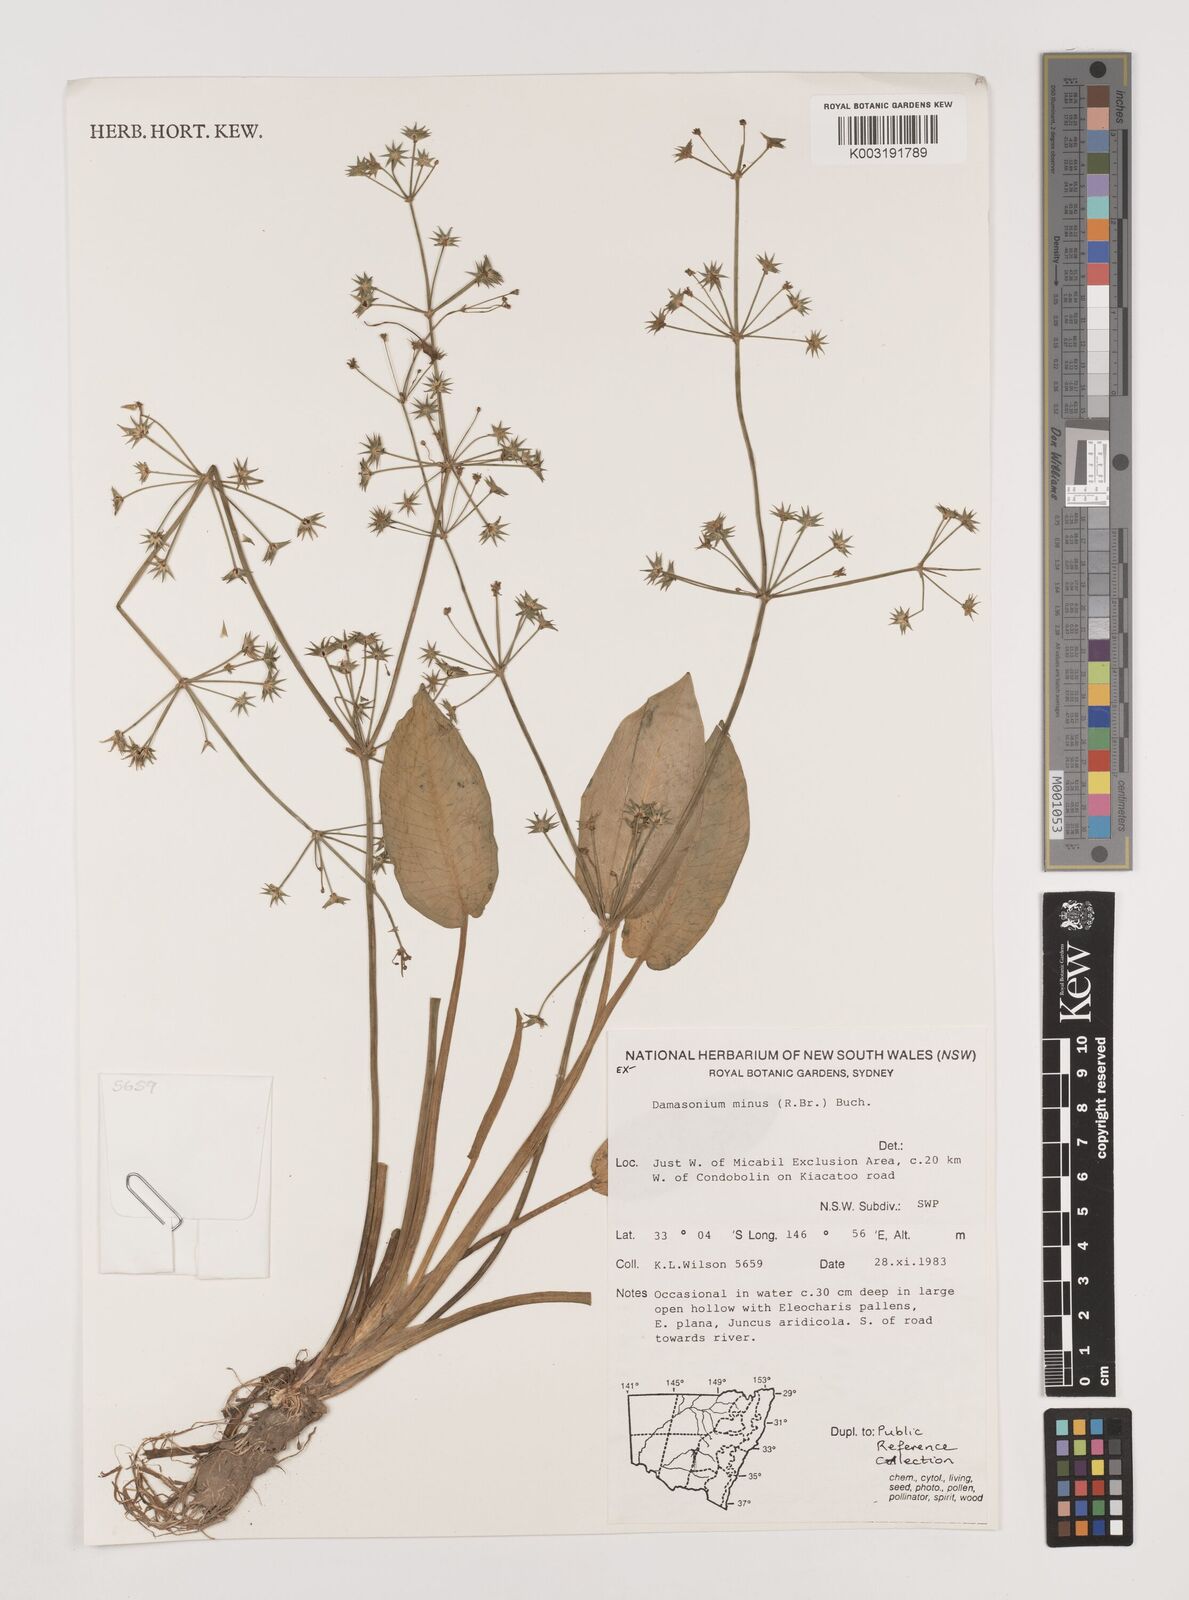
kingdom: Plantae
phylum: Tracheophyta
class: Liliopsida
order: Alismatales
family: Alismataceae
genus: Damasonium
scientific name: Damasonium minus
